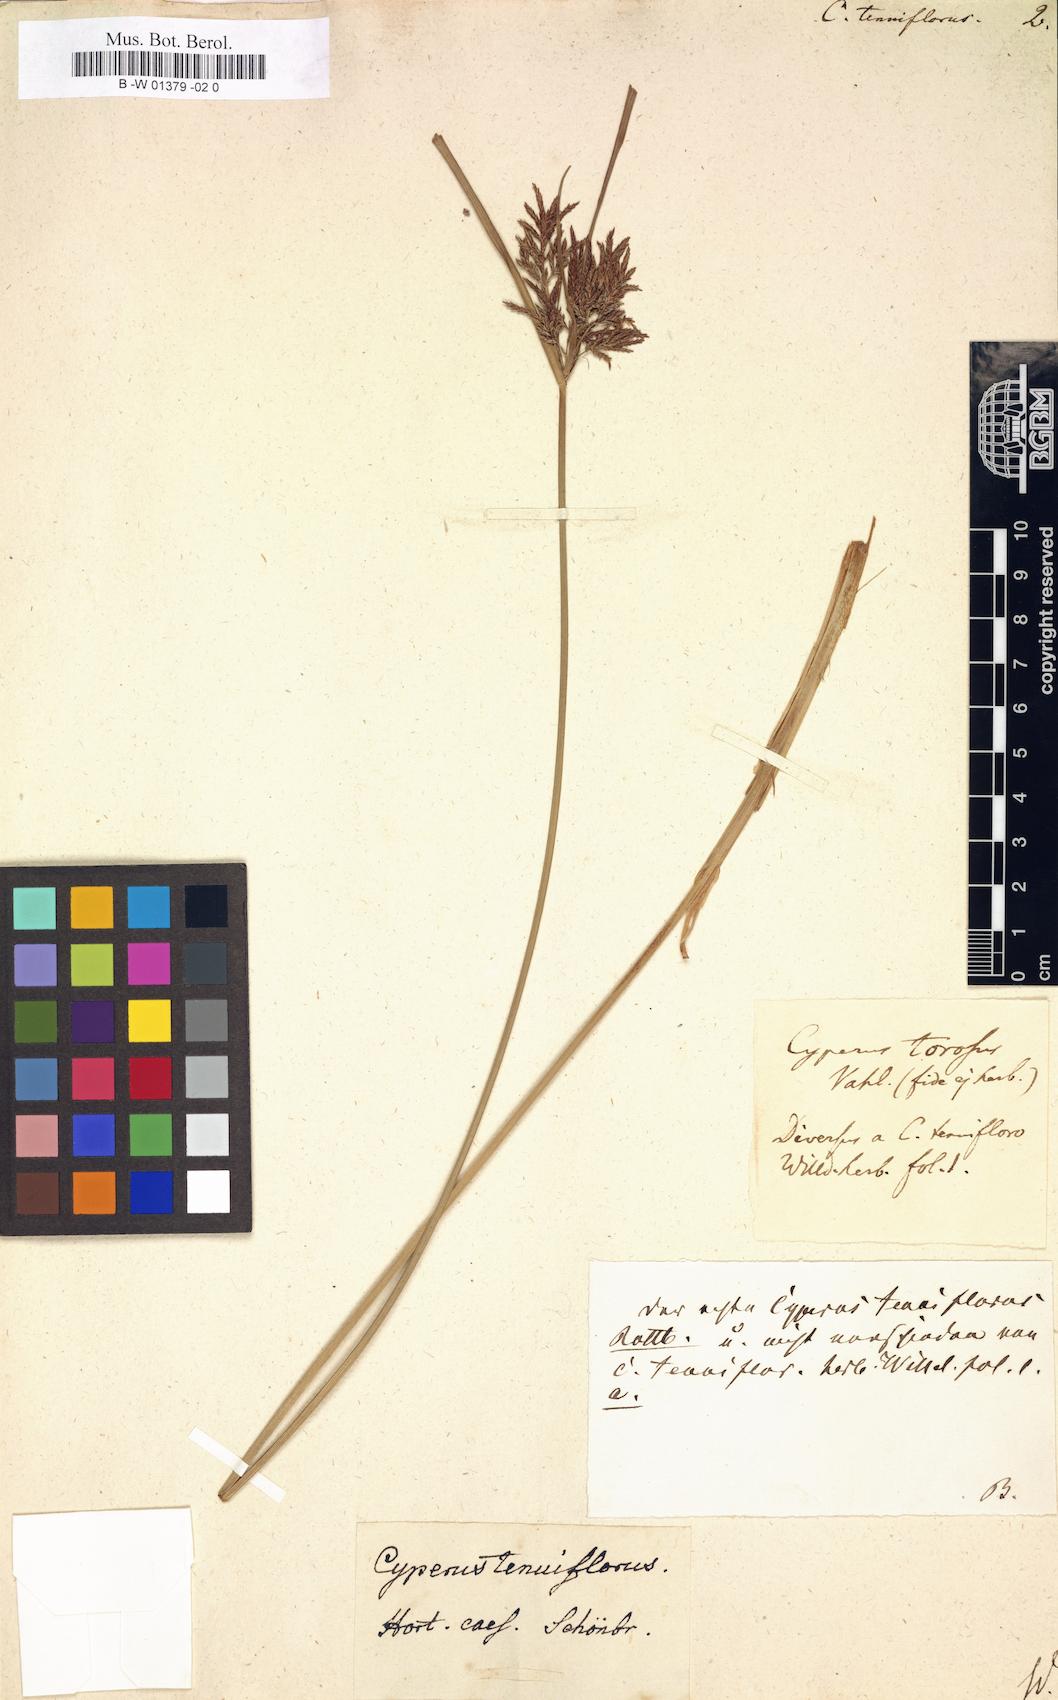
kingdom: Plantae
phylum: Tracheophyta
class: Liliopsida
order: Poales
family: Cyperaceae
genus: Cyperus
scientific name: Cyperus longus
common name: Galingale
